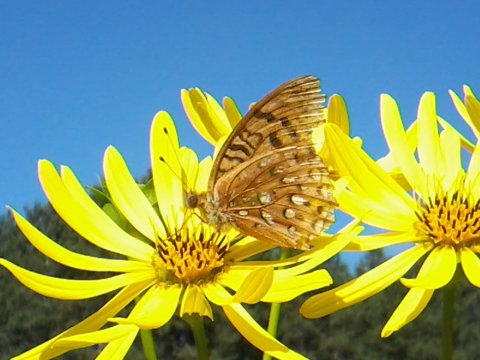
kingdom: Animalia
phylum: Arthropoda
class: Insecta
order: Lepidoptera
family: Nymphalidae
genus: Speyeria
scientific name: Speyeria aphrodite
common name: Aphrodite Fritillary
